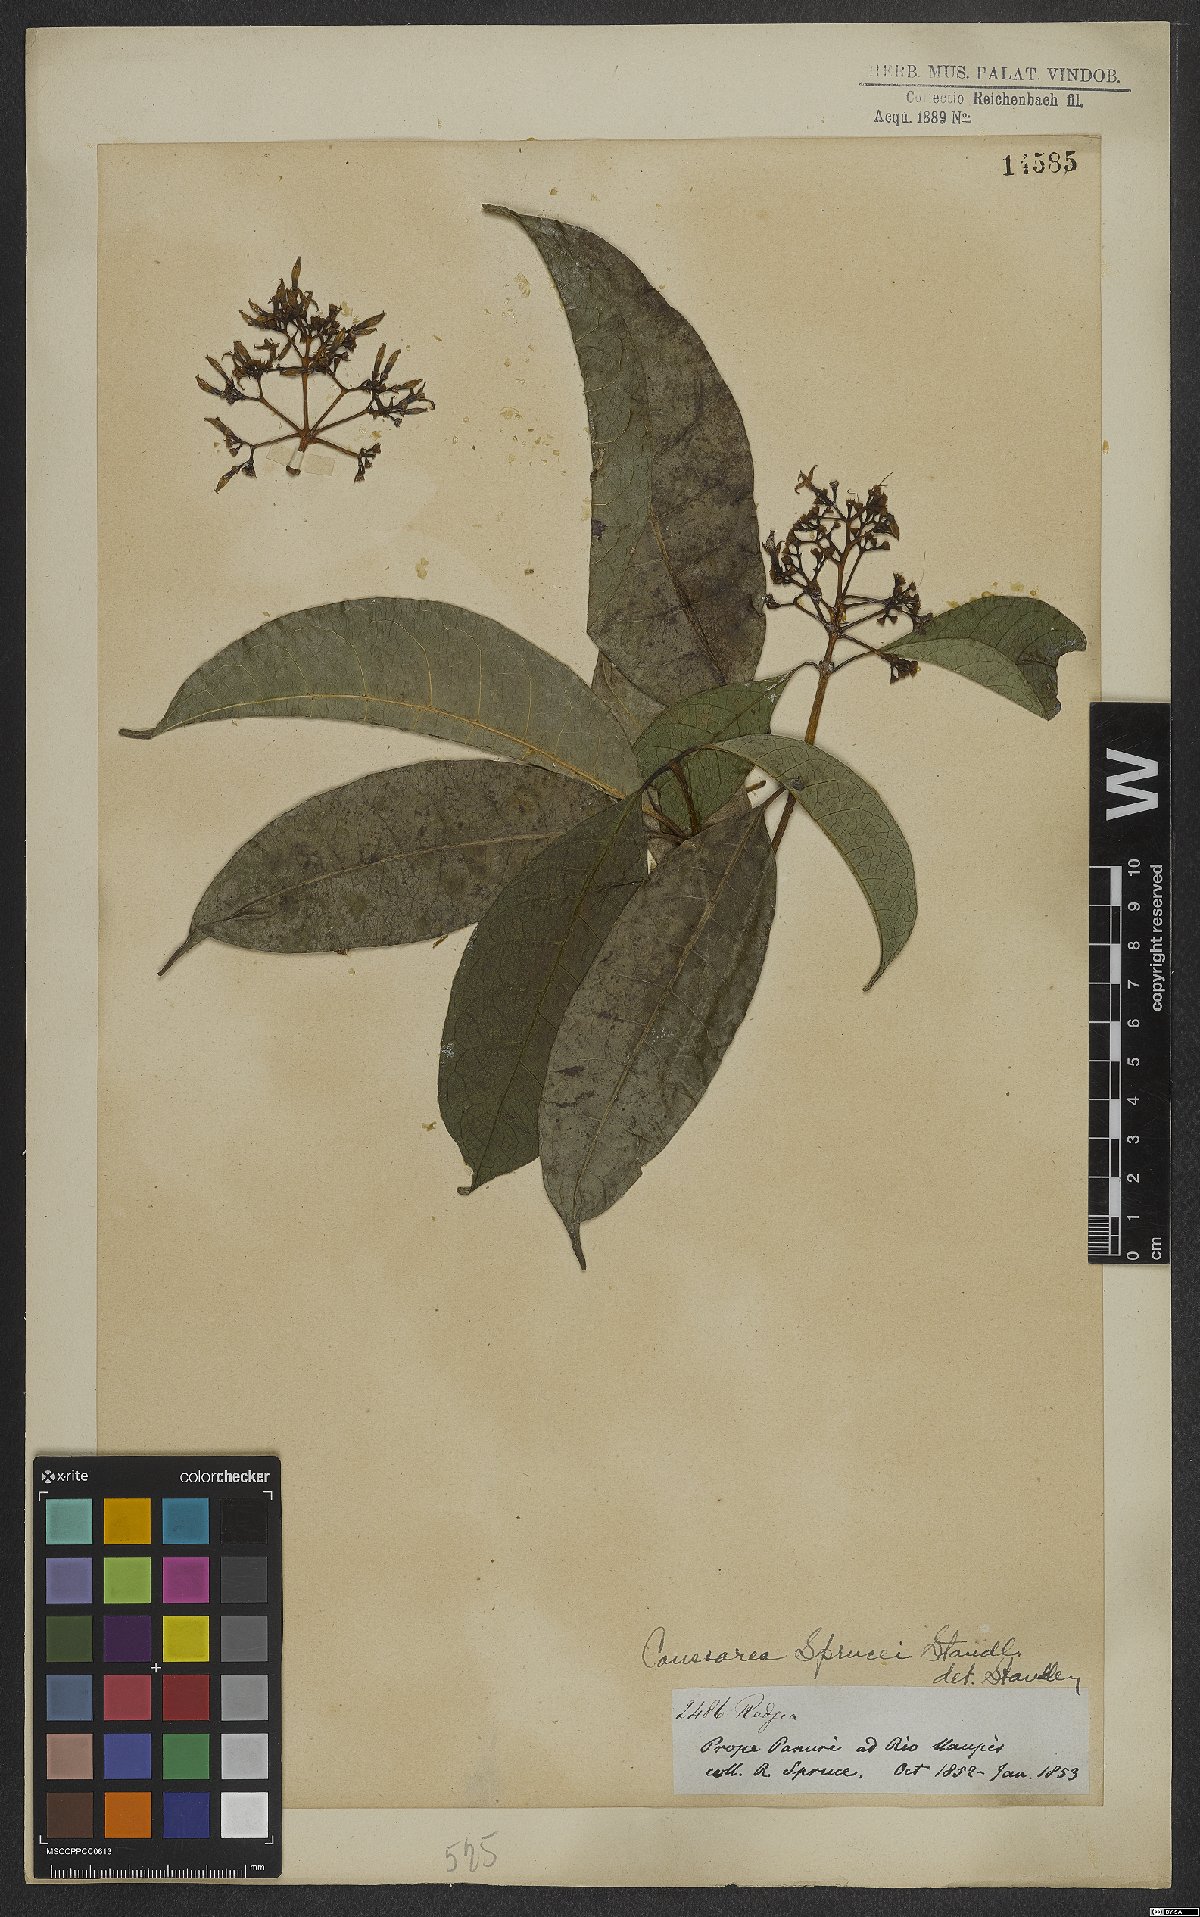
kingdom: Plantae
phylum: Tracheophyta
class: Magnoliopsida
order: Gentianales
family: Rubiaceae
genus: Coussarea
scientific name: Coussarea violacea
